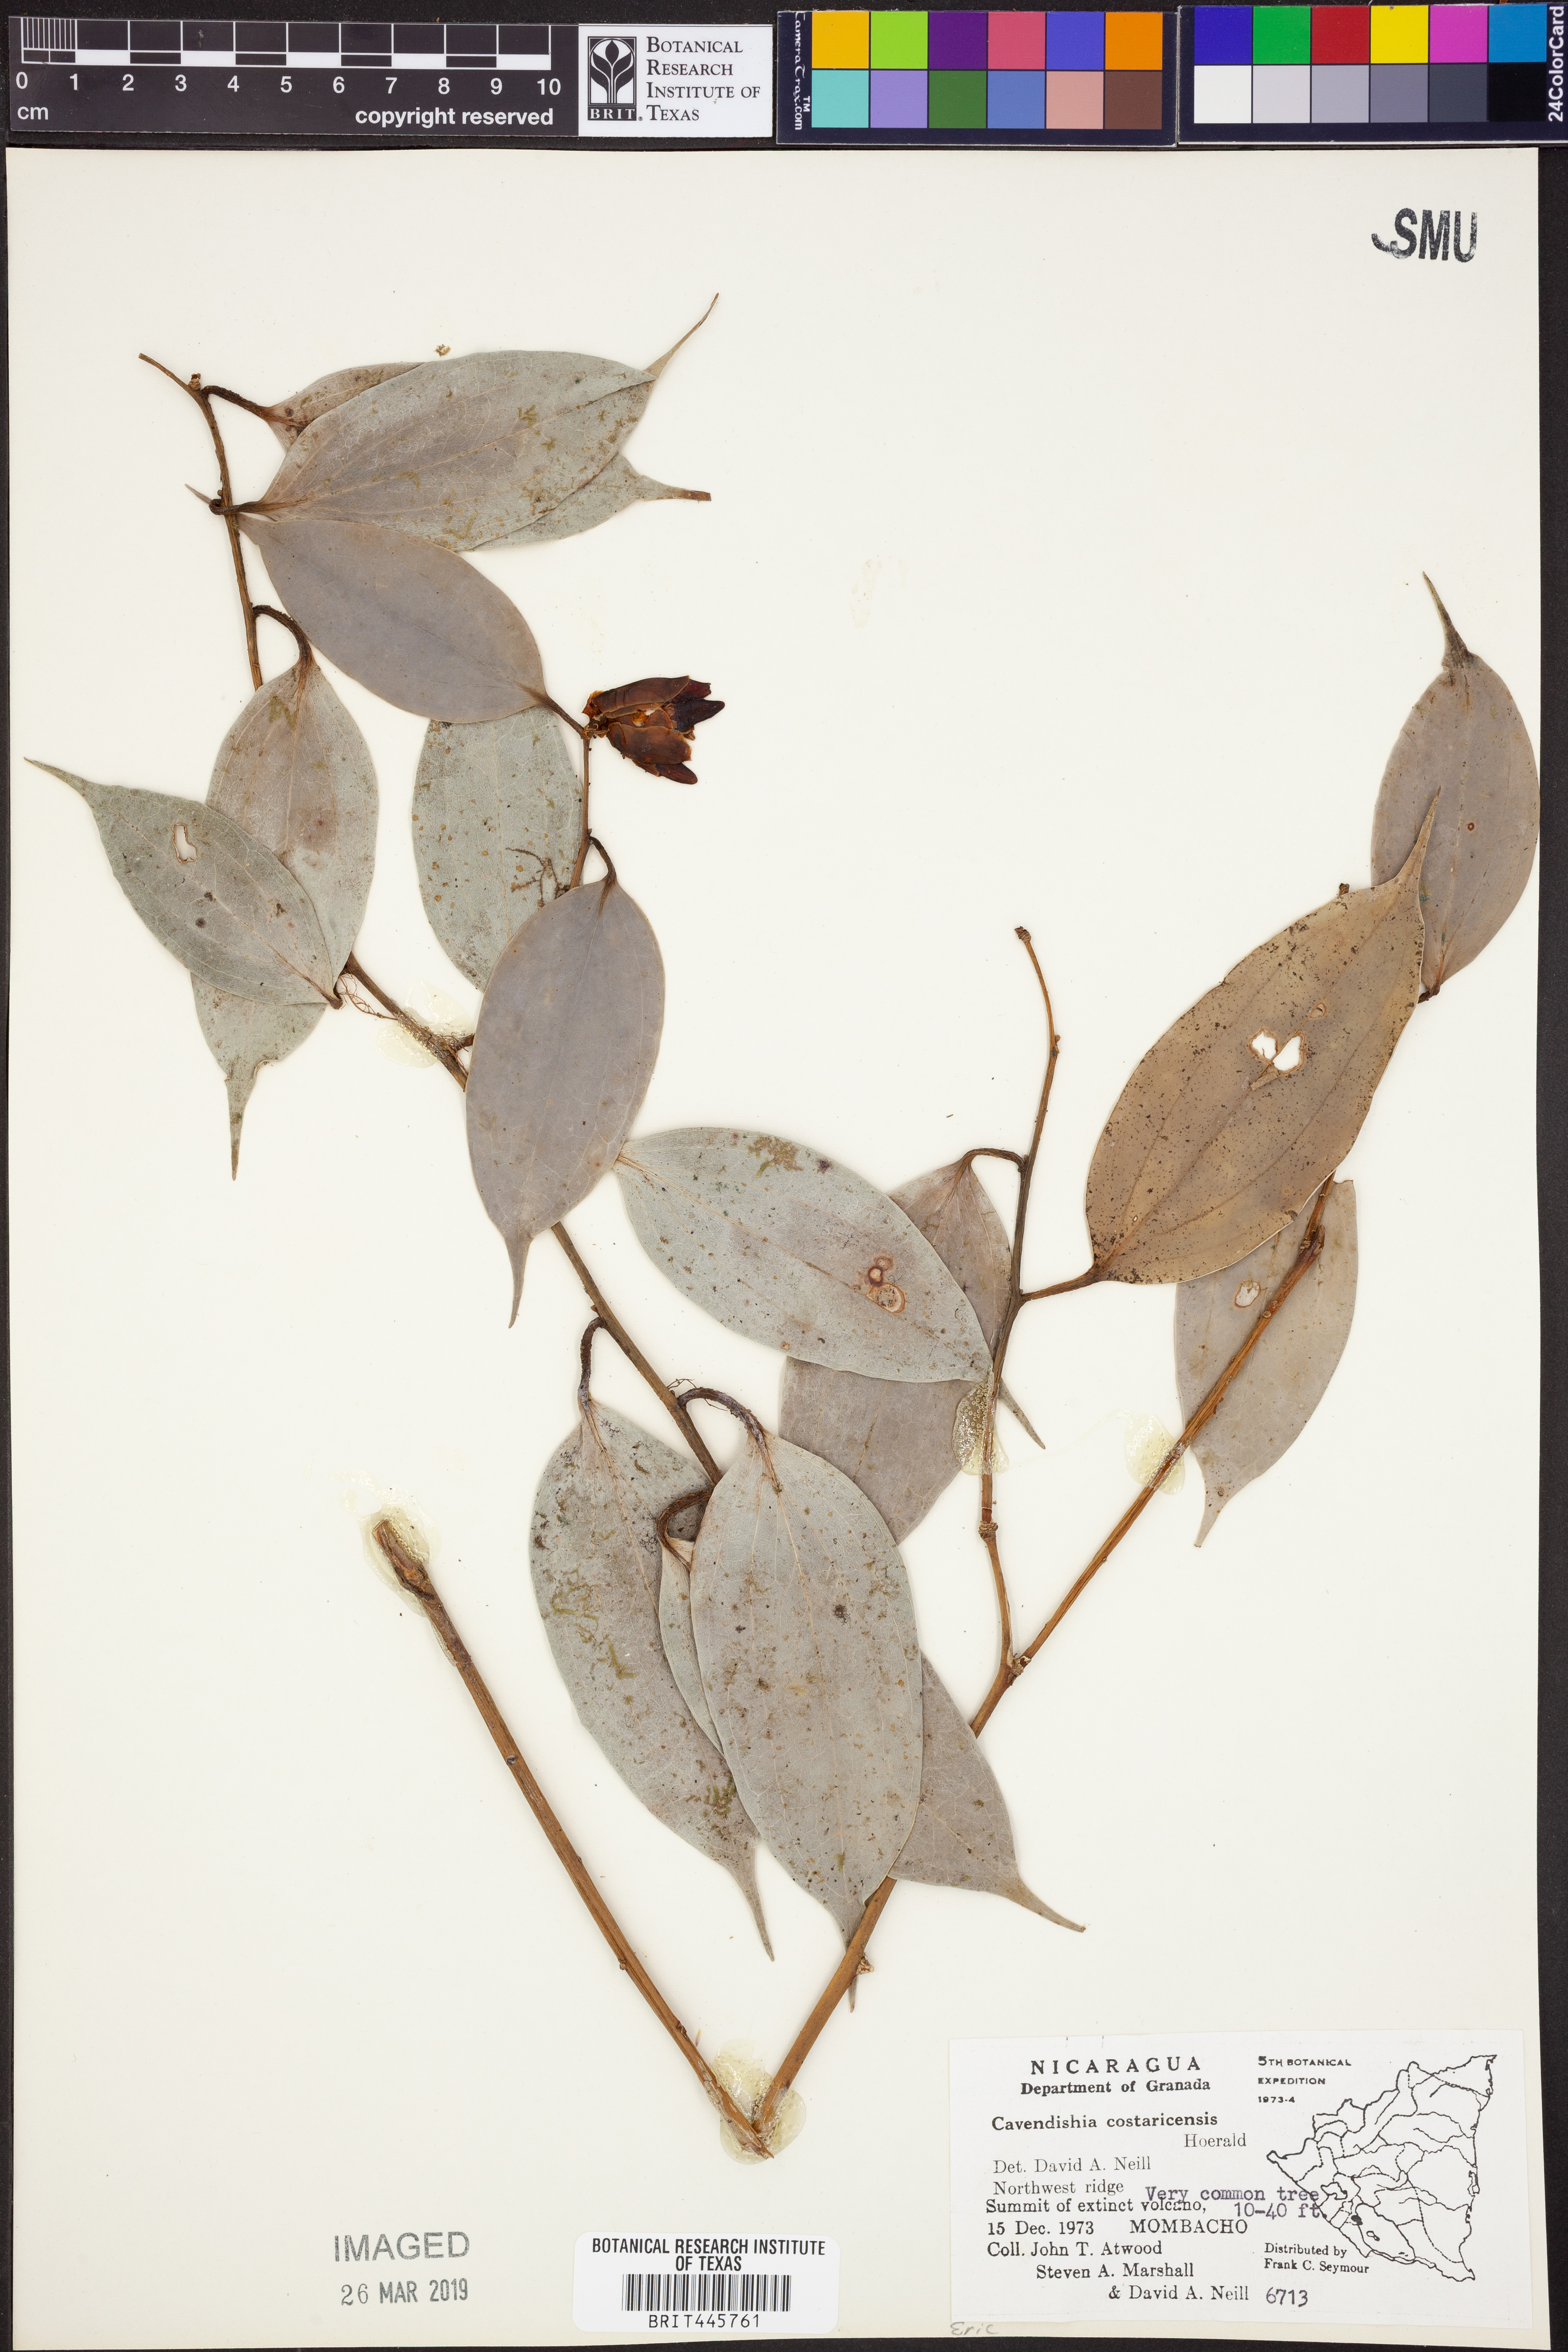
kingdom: Plantae
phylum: Tracheophyta
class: Magnoliopsida
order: Ericales
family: Ericaceae
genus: Cavendishia
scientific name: Cavendishia bracteata
